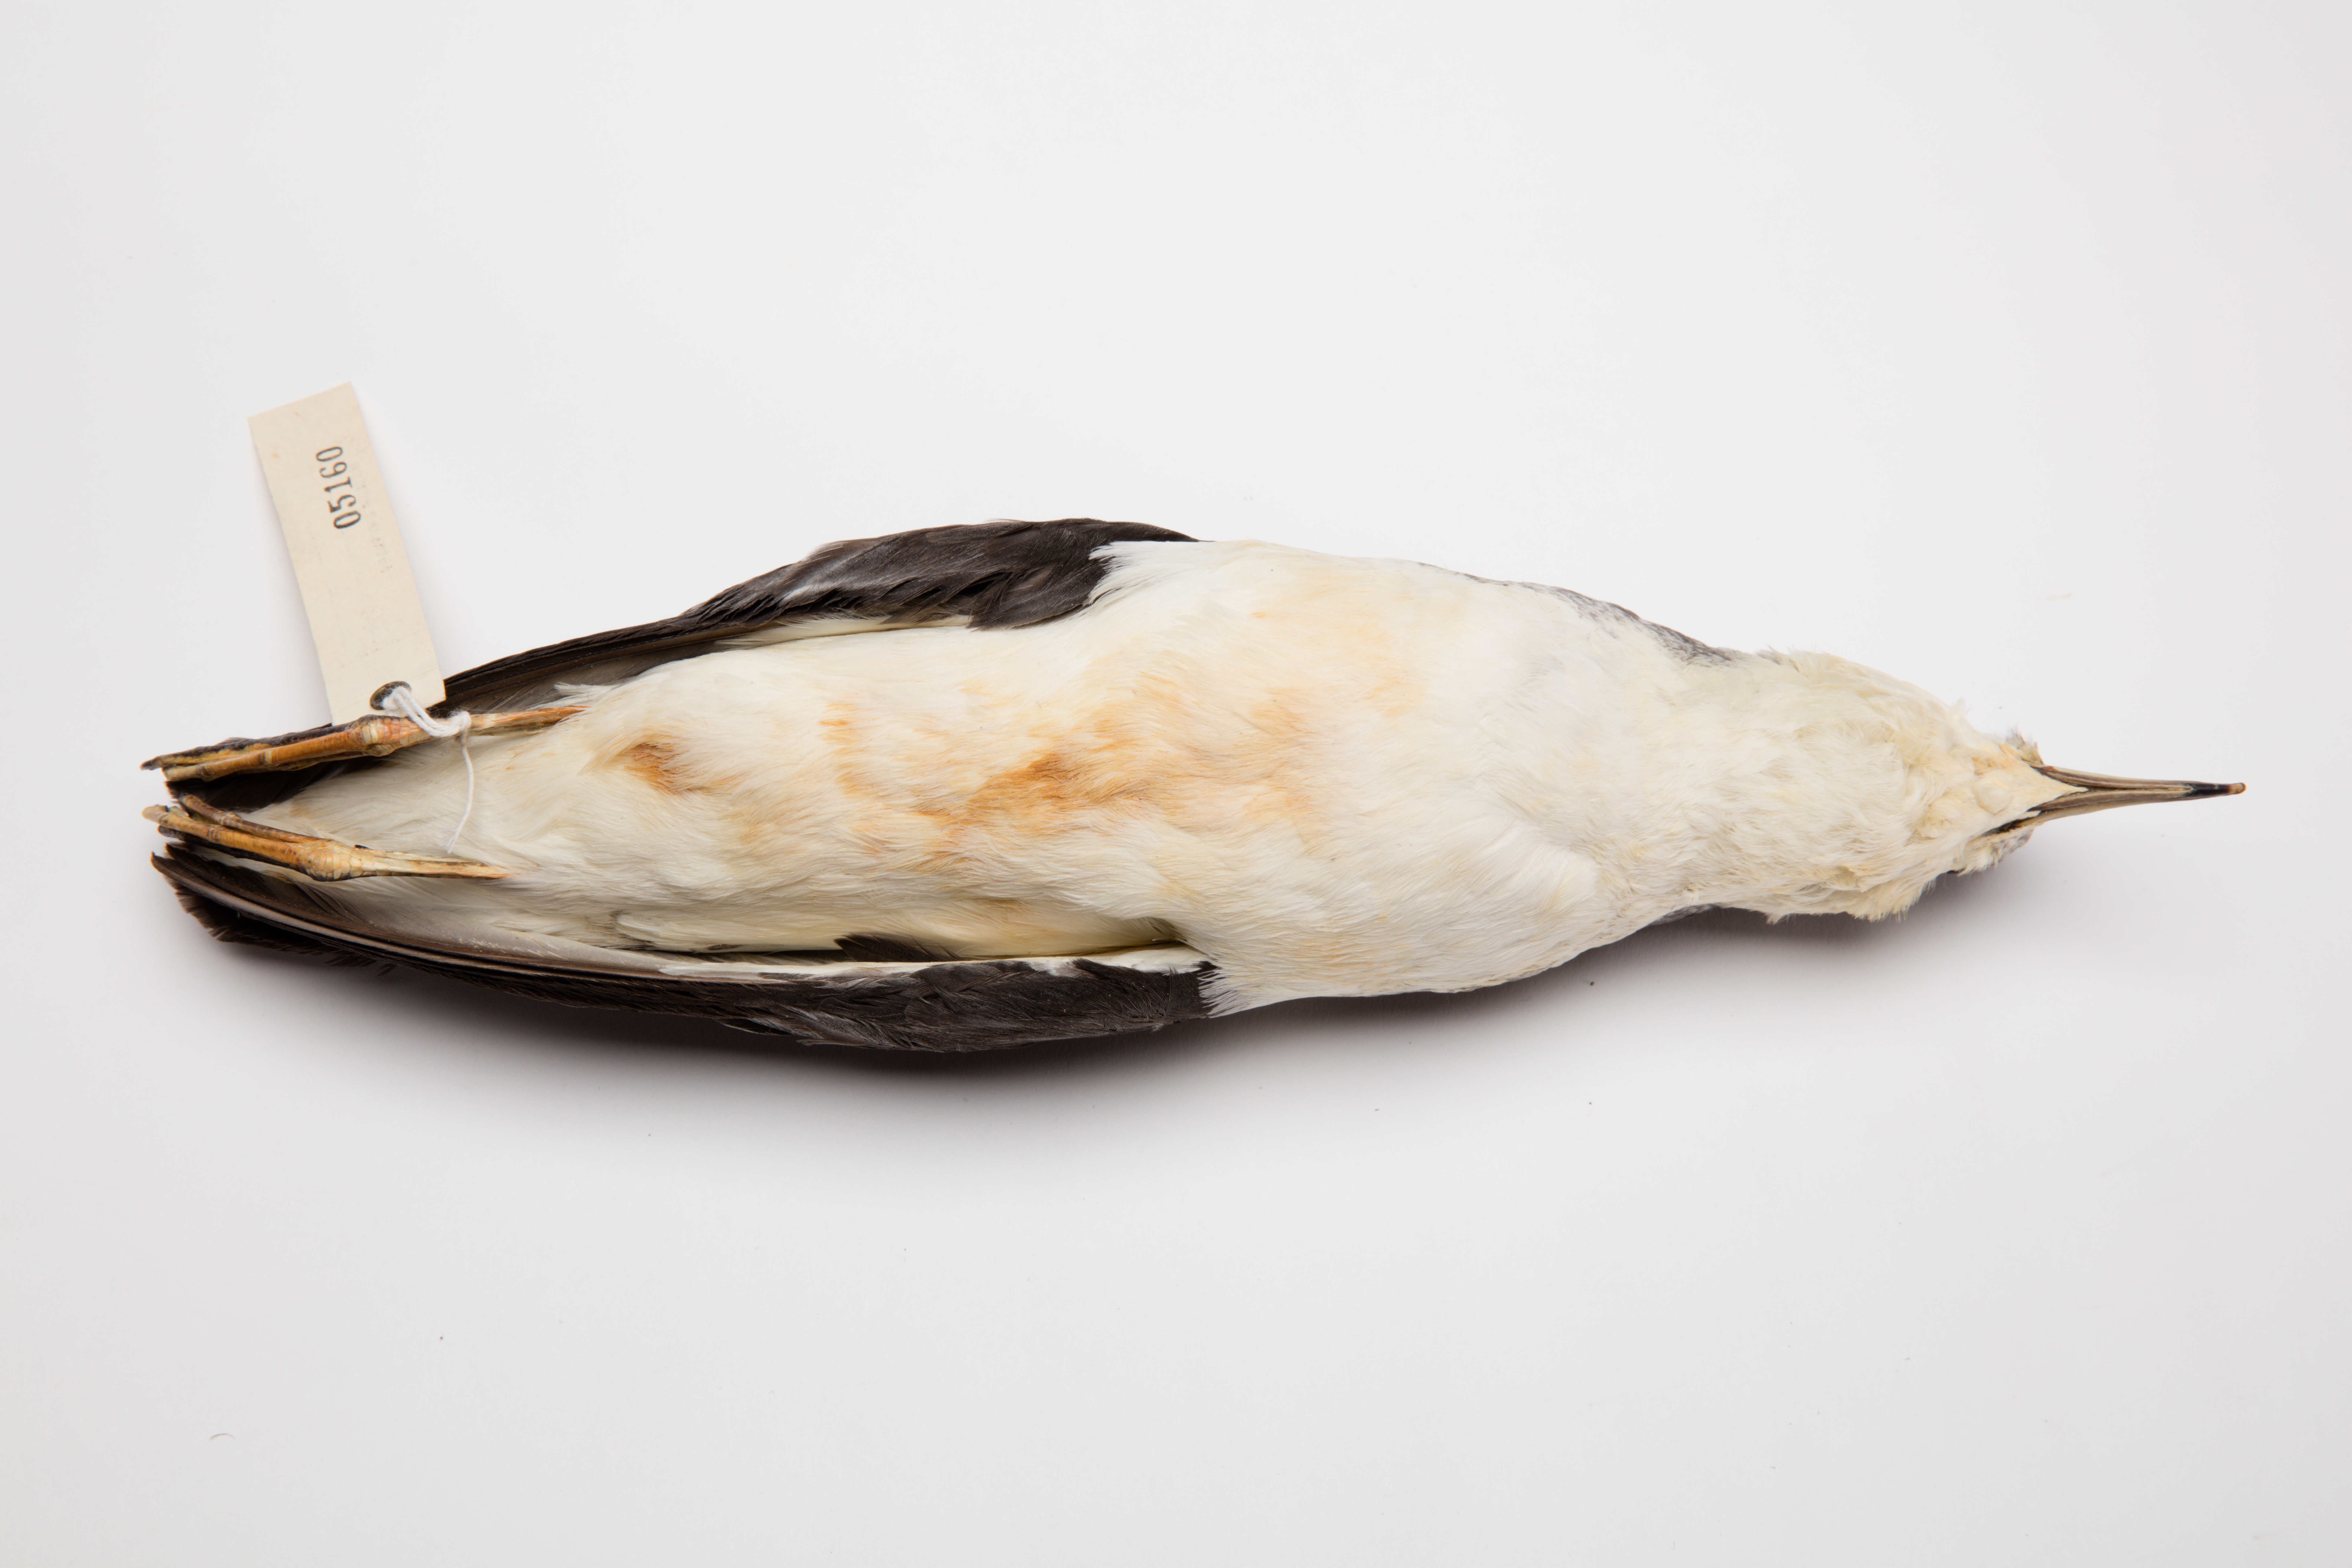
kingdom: Animalia
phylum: Chordata
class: Aves
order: Procellariiformes
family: Procellariidae
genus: Puffinus
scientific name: Puffinus assimilis
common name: Little shearwater
